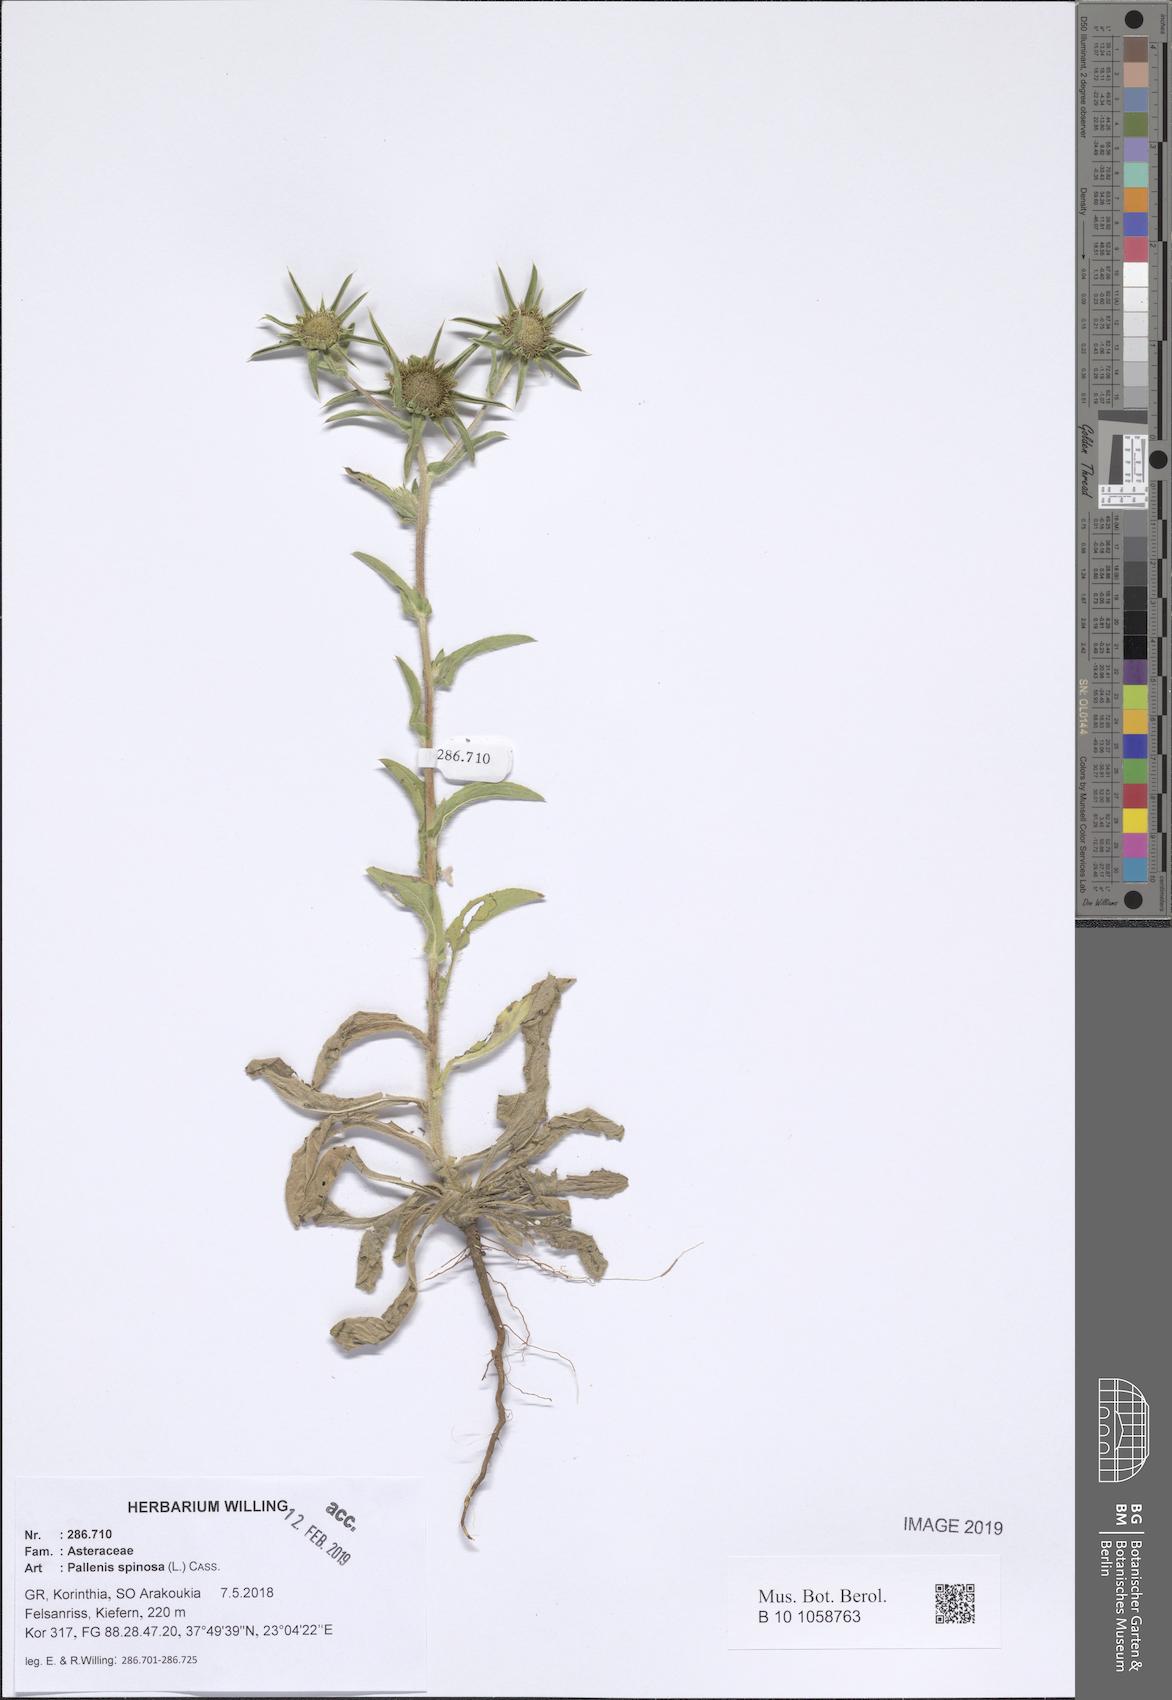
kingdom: Plantae
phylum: Tracheophyta
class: Magnoliopsida
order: Asterales
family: Asteraceae
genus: Pallenis
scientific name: Pallenis spinosa
